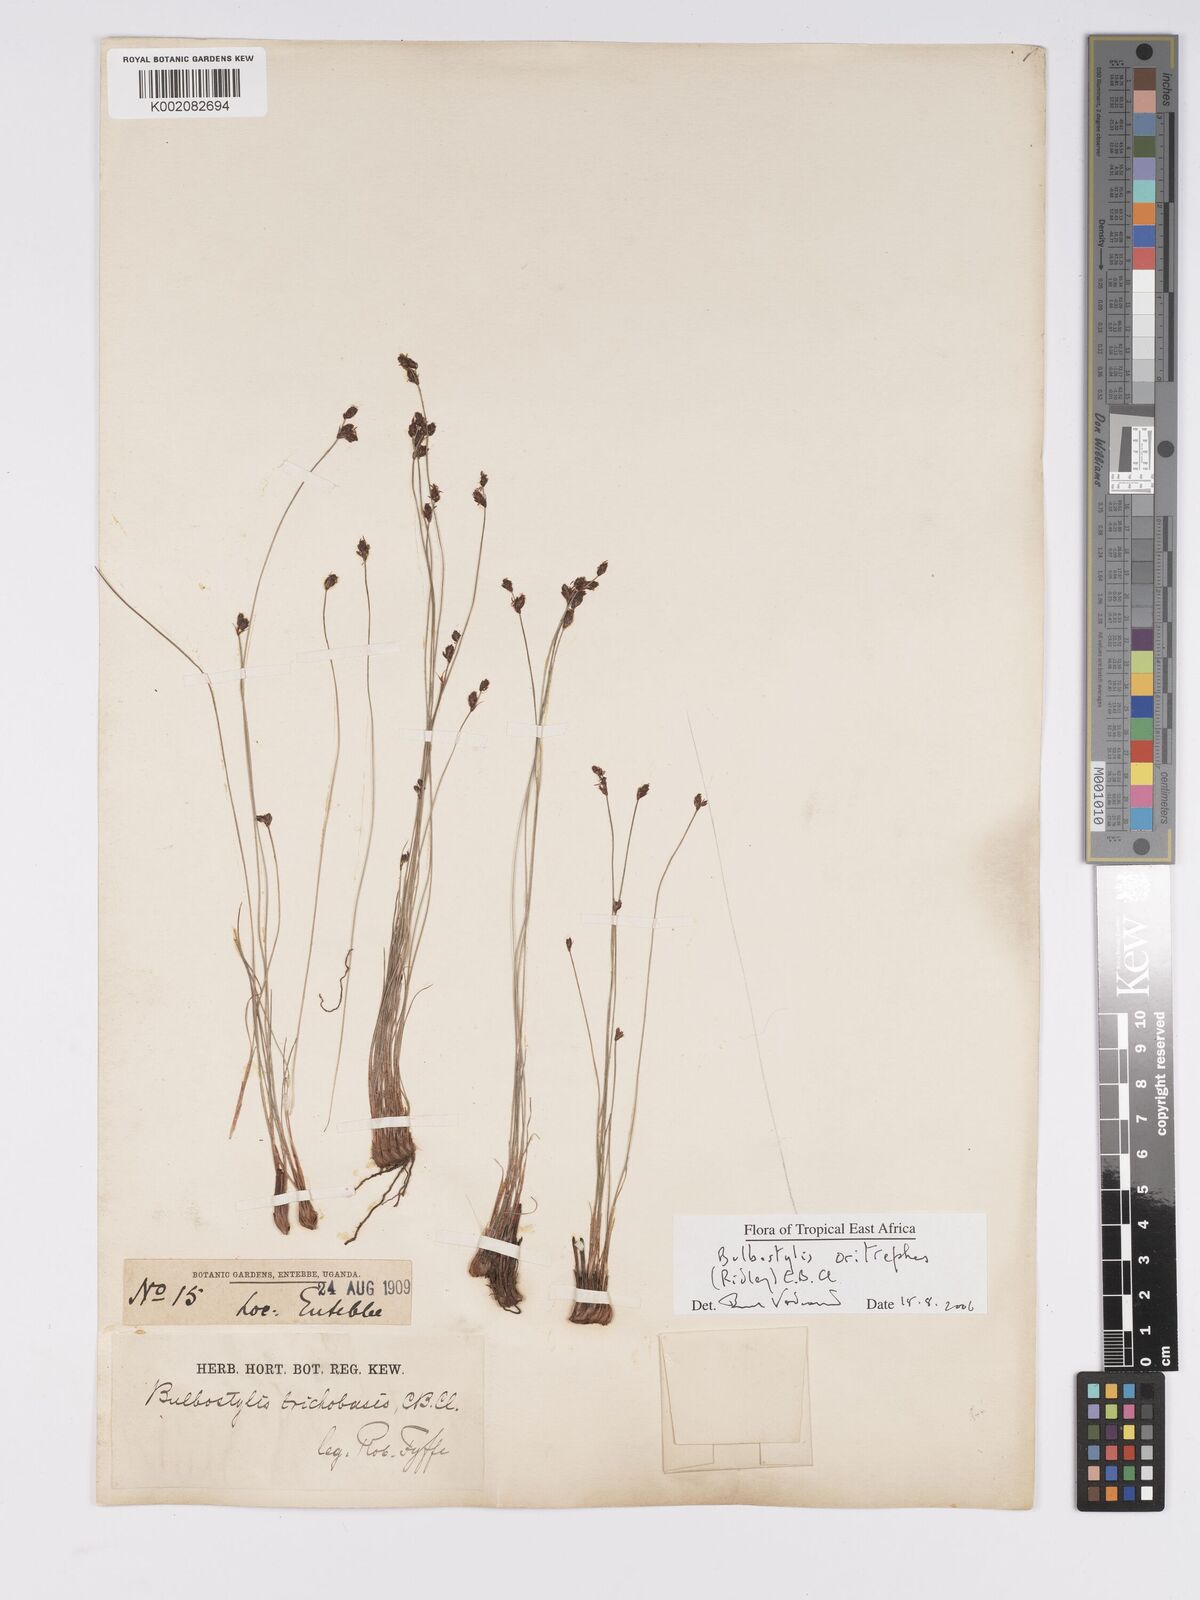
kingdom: Plantae
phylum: Tracheophyta
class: Liliopsida
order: Poales
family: Cyperaceae
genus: Bulbostylis
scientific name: Bulbostylis oritrephes
